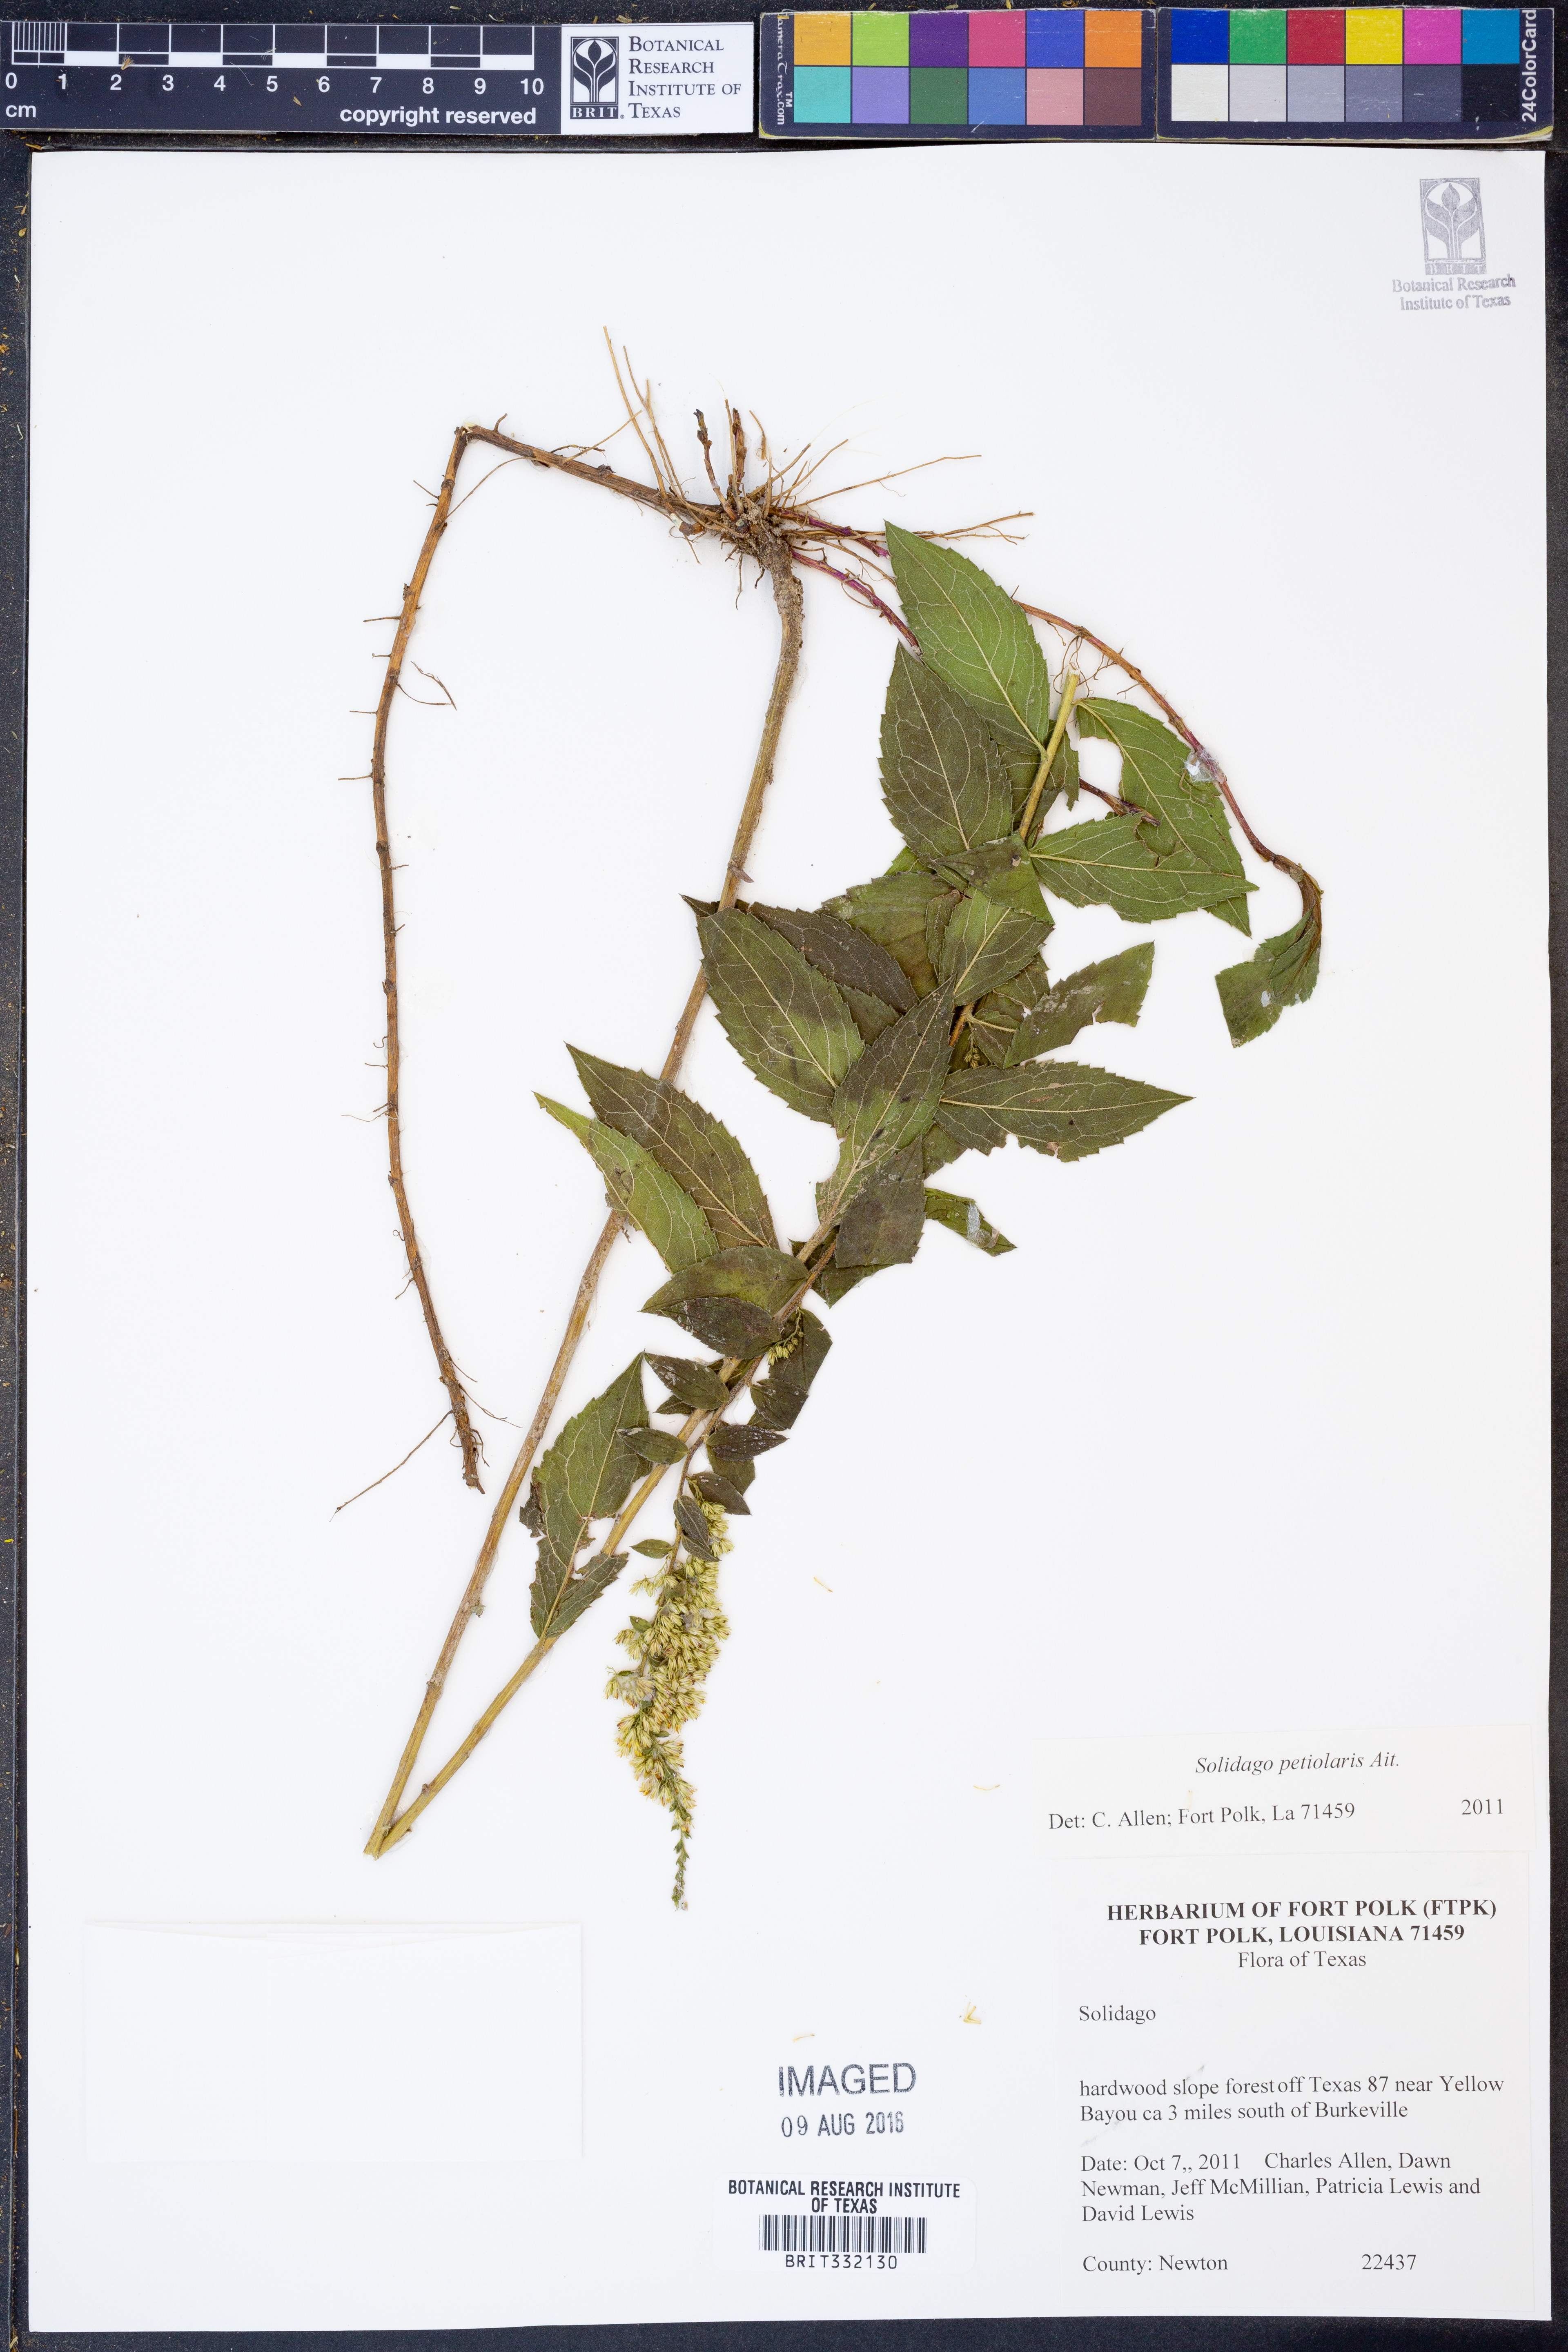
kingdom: Plantae
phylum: Tracheophyta
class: Magnoliopsida
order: Asterales
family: Asteraceae
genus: Solidago
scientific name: Solidago petiolaris
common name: Downy ragged goldenrod
